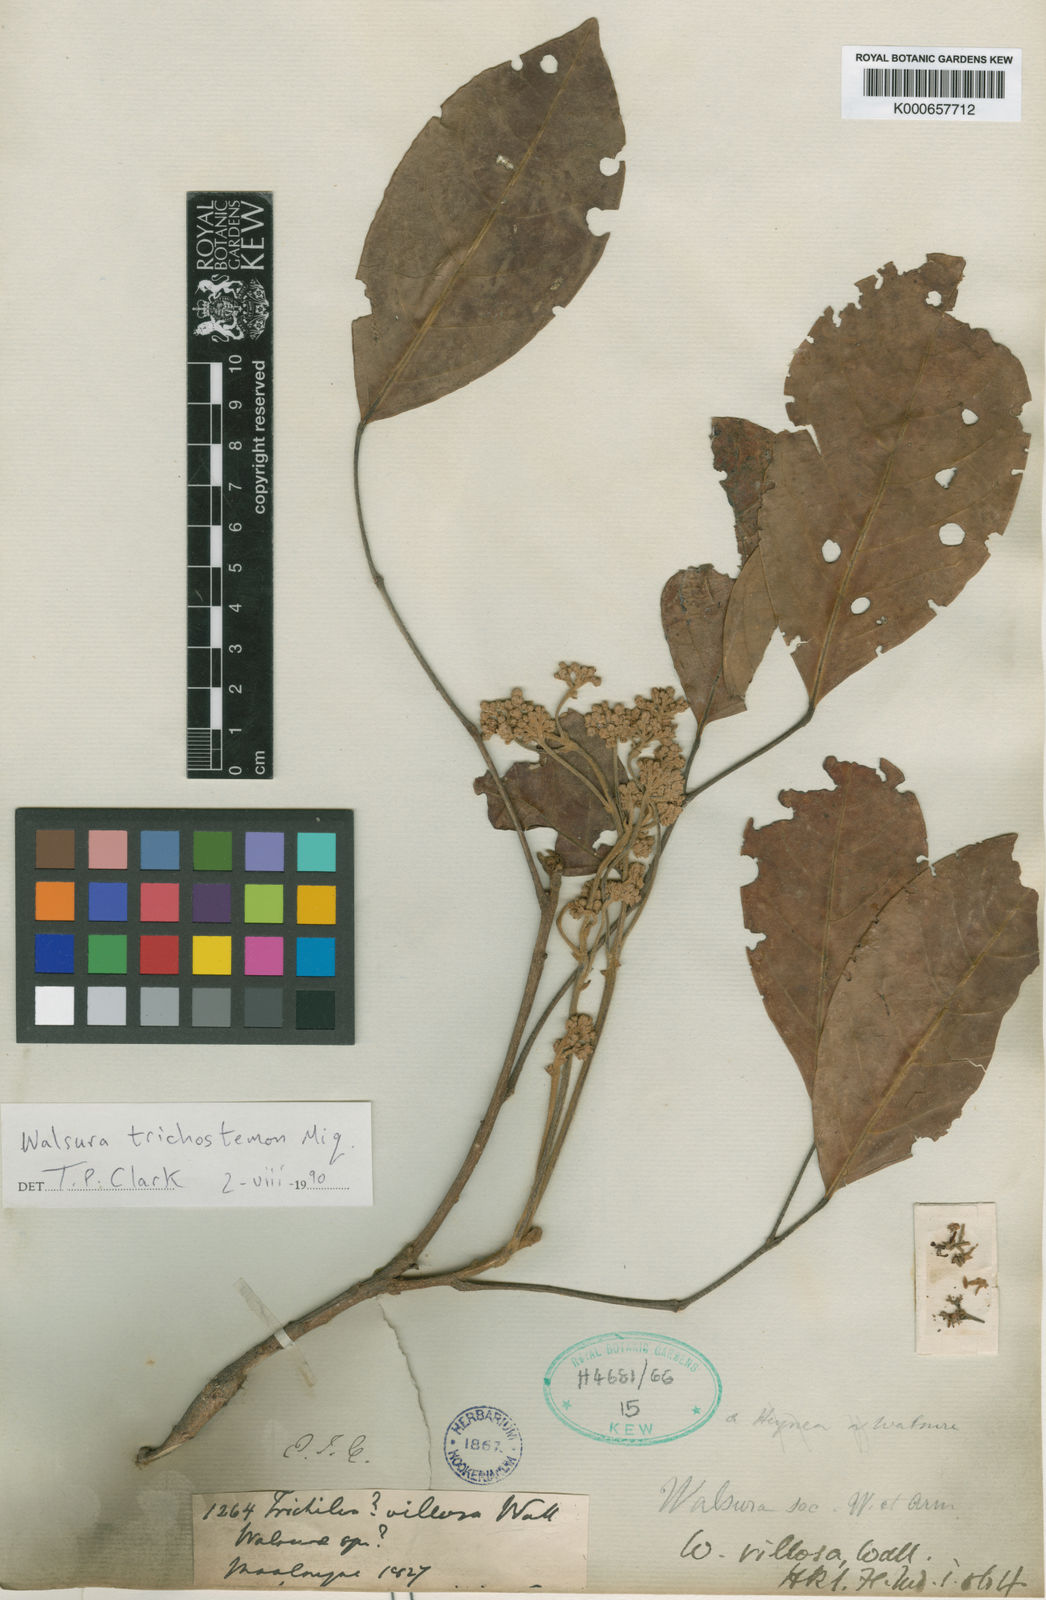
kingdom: Plantae
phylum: Tracheophyta
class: Magnoliopsida
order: Sapindales
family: Meliaceae
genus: Walsura
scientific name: Walsura trichostemon
